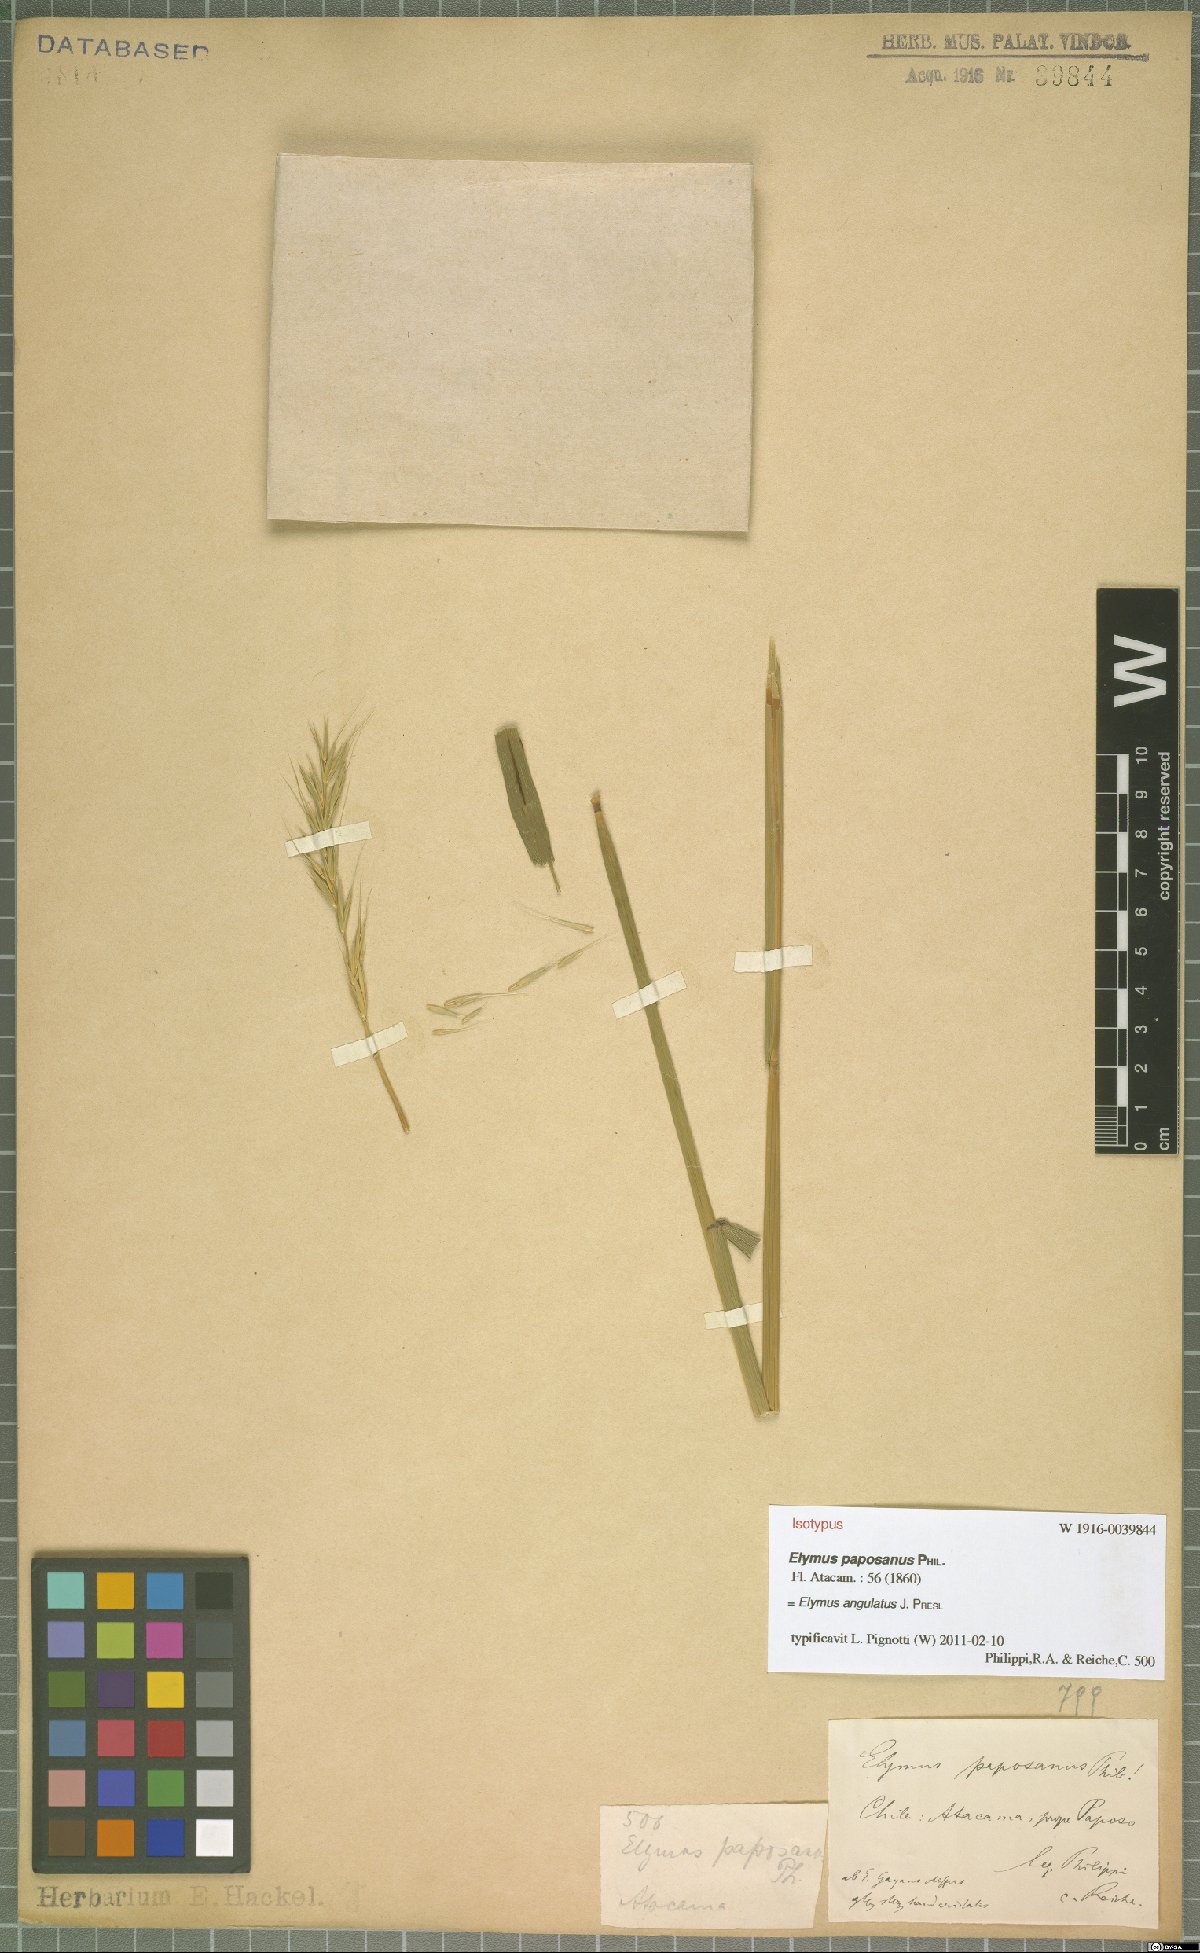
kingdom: Plantae
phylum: Tracheophyta
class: Liliopsida
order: Poales
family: Poaceae
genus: Elymus
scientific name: Elymus angulatus
